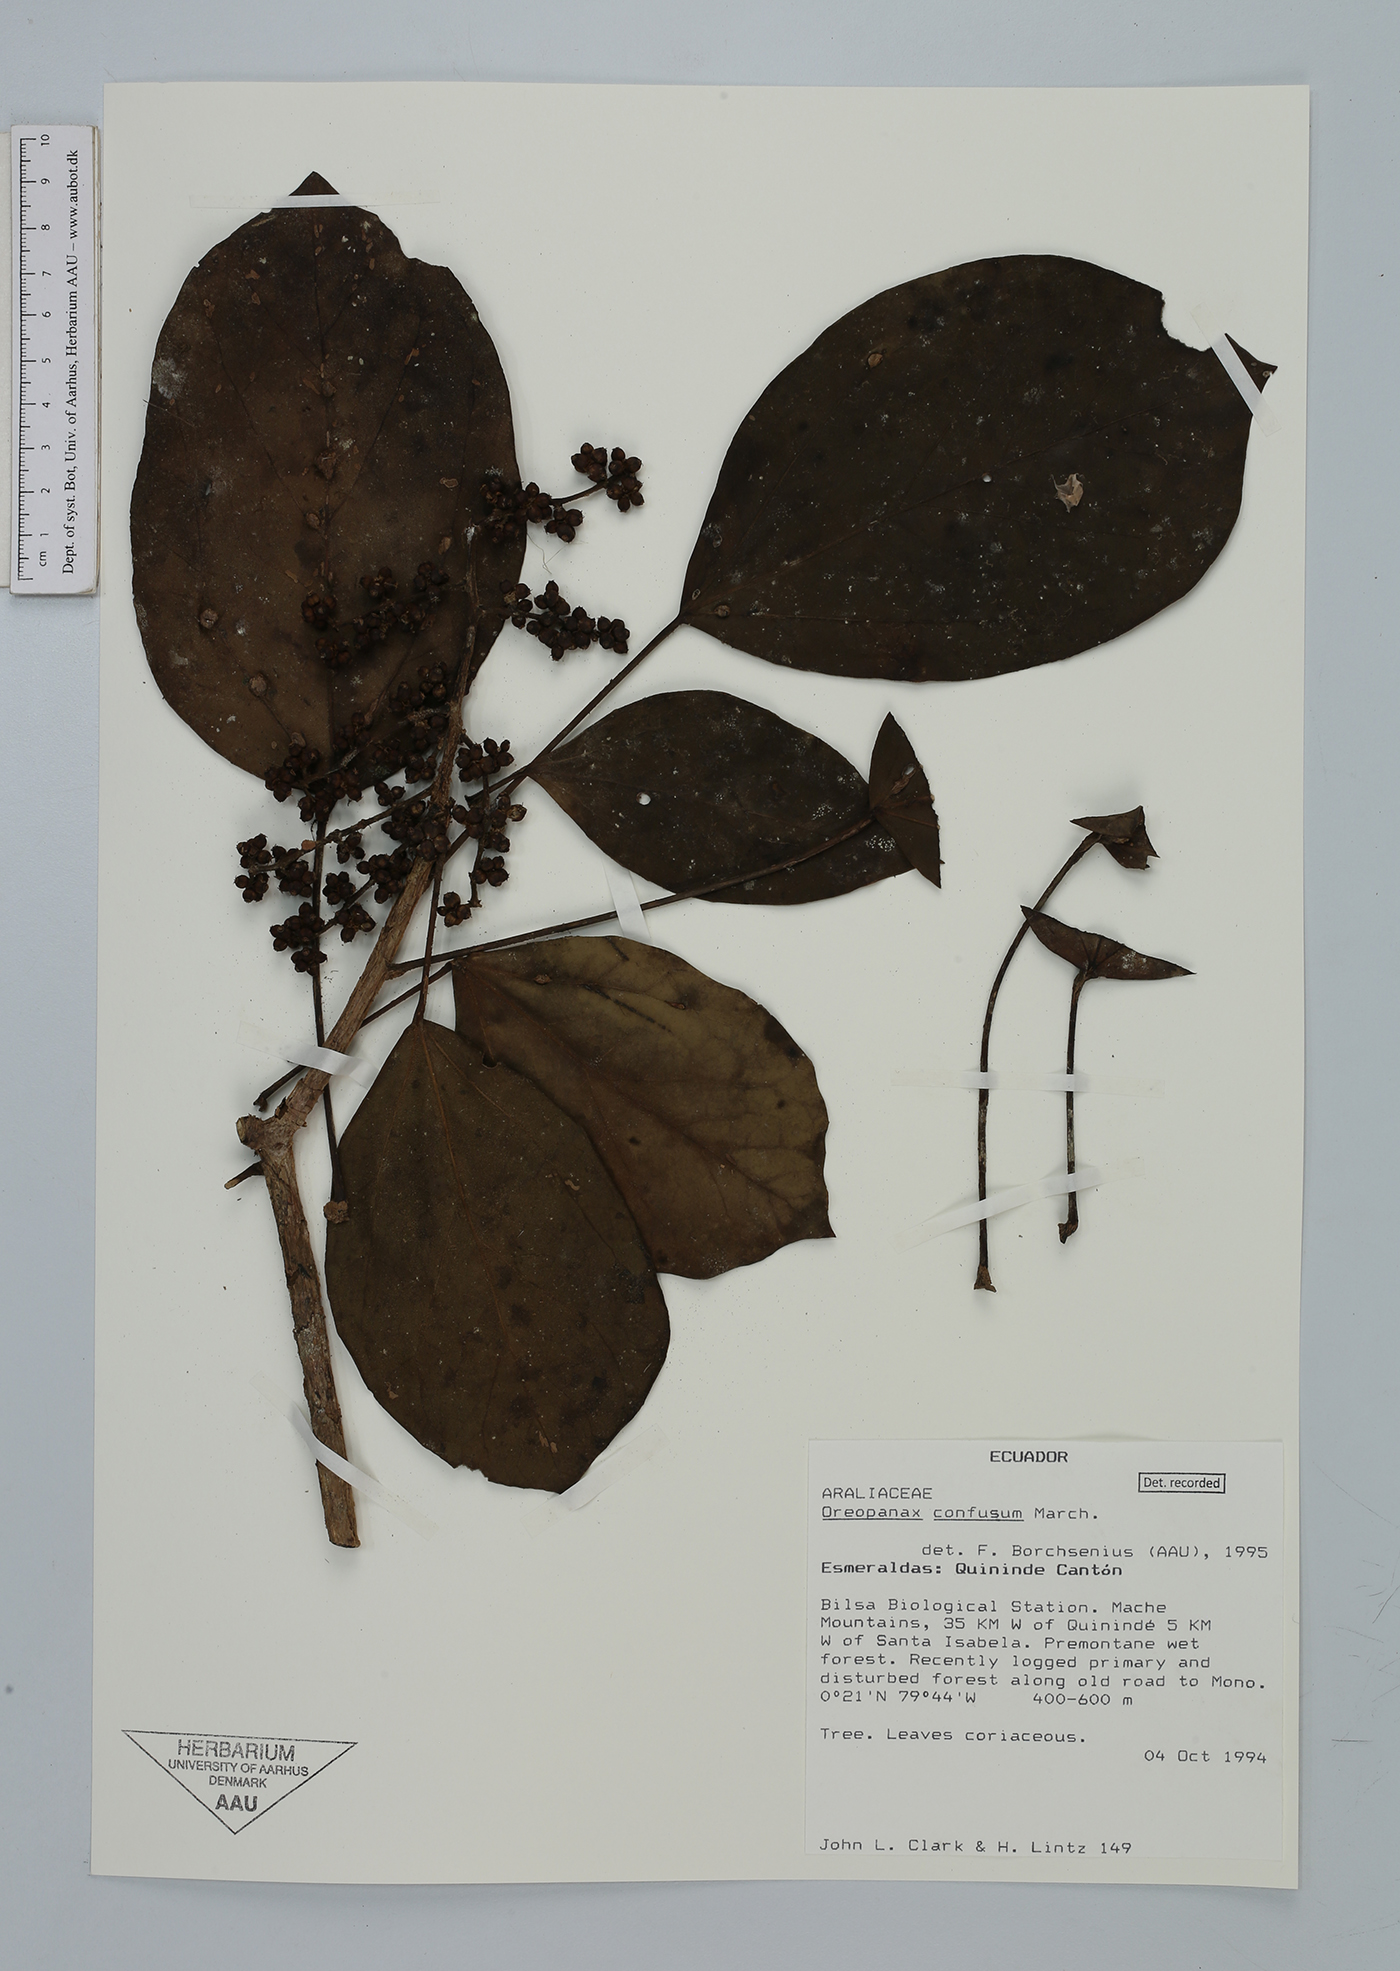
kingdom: Plantae
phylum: Tracheophyta
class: Magnoliopsida
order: Apiales
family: Araliaceae
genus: Oreopanax
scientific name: Oreopanax confusus
